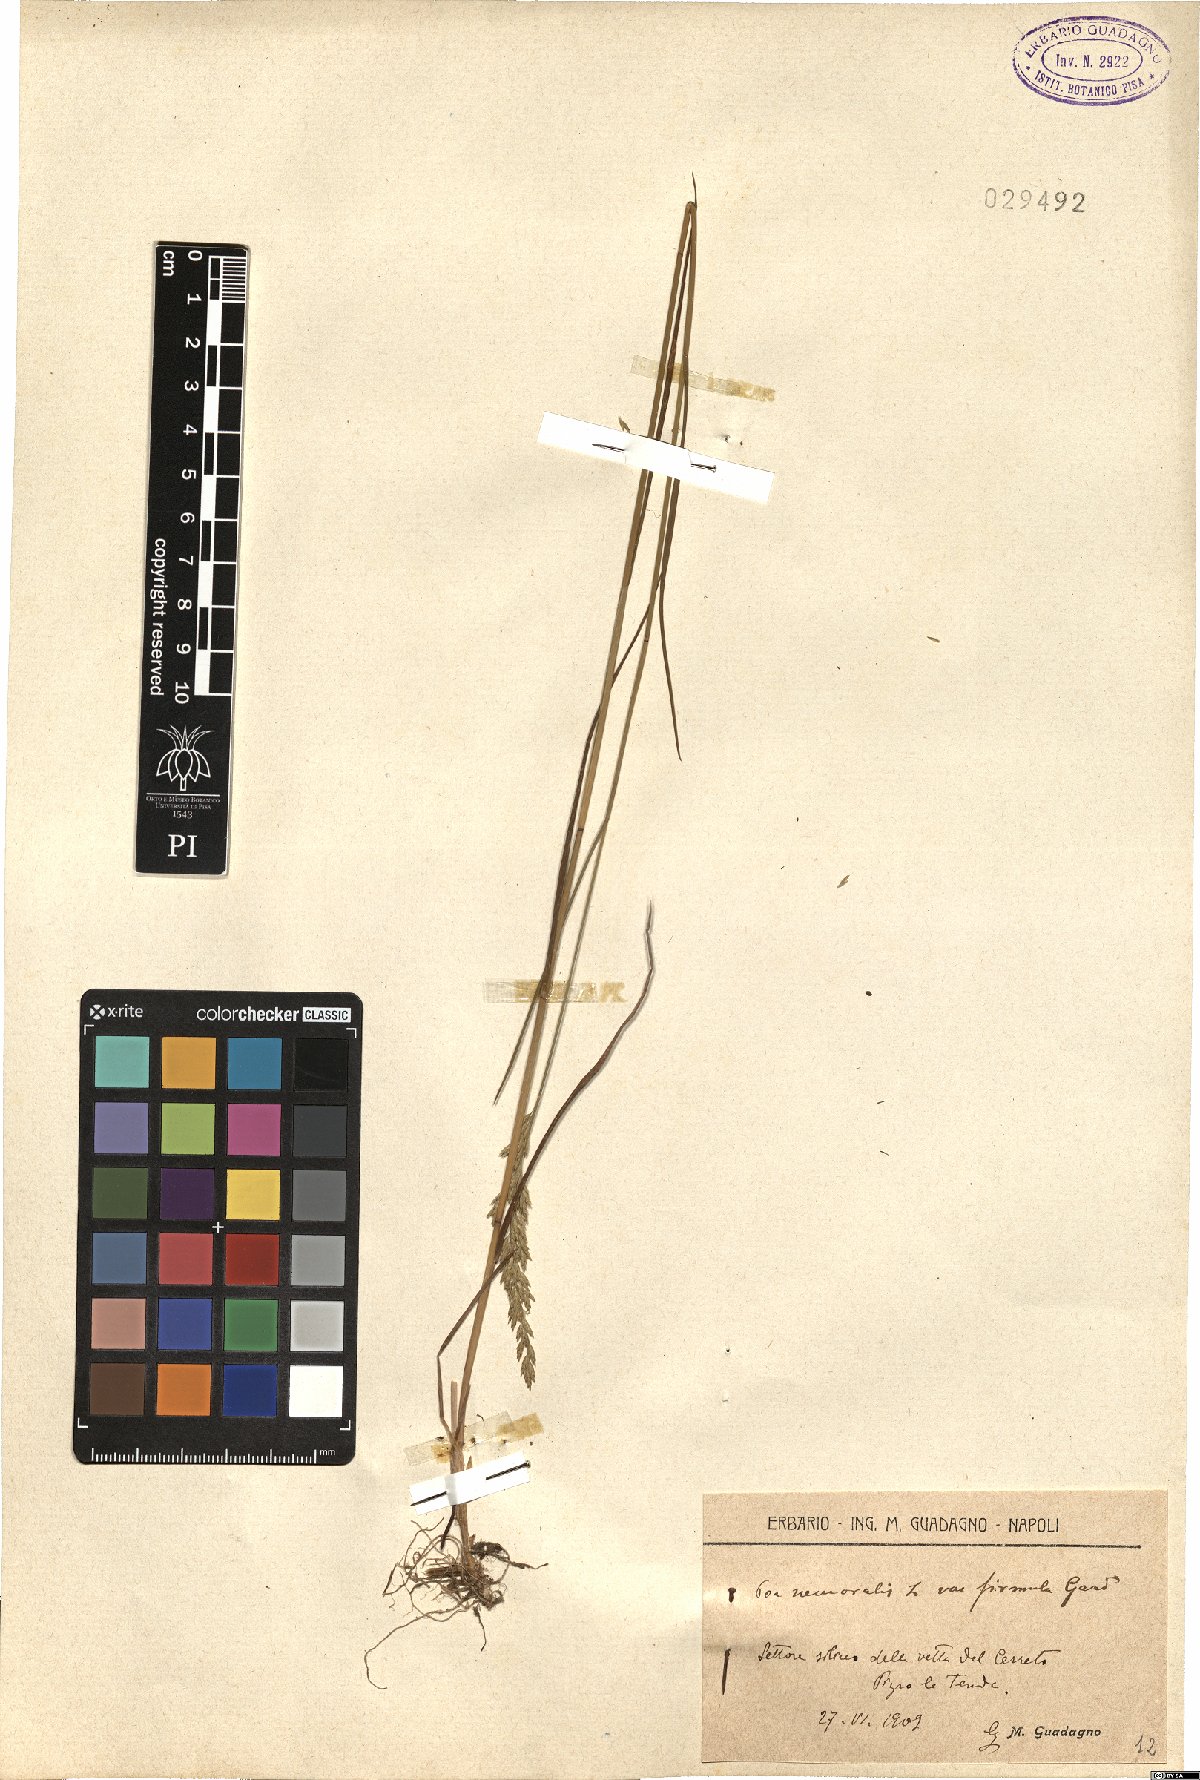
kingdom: Plantae
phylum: Tracheophyta
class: Liliopsida
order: Poales
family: Poaceae
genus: Poa
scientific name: Poa nemoralis
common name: Wood bluegrass
